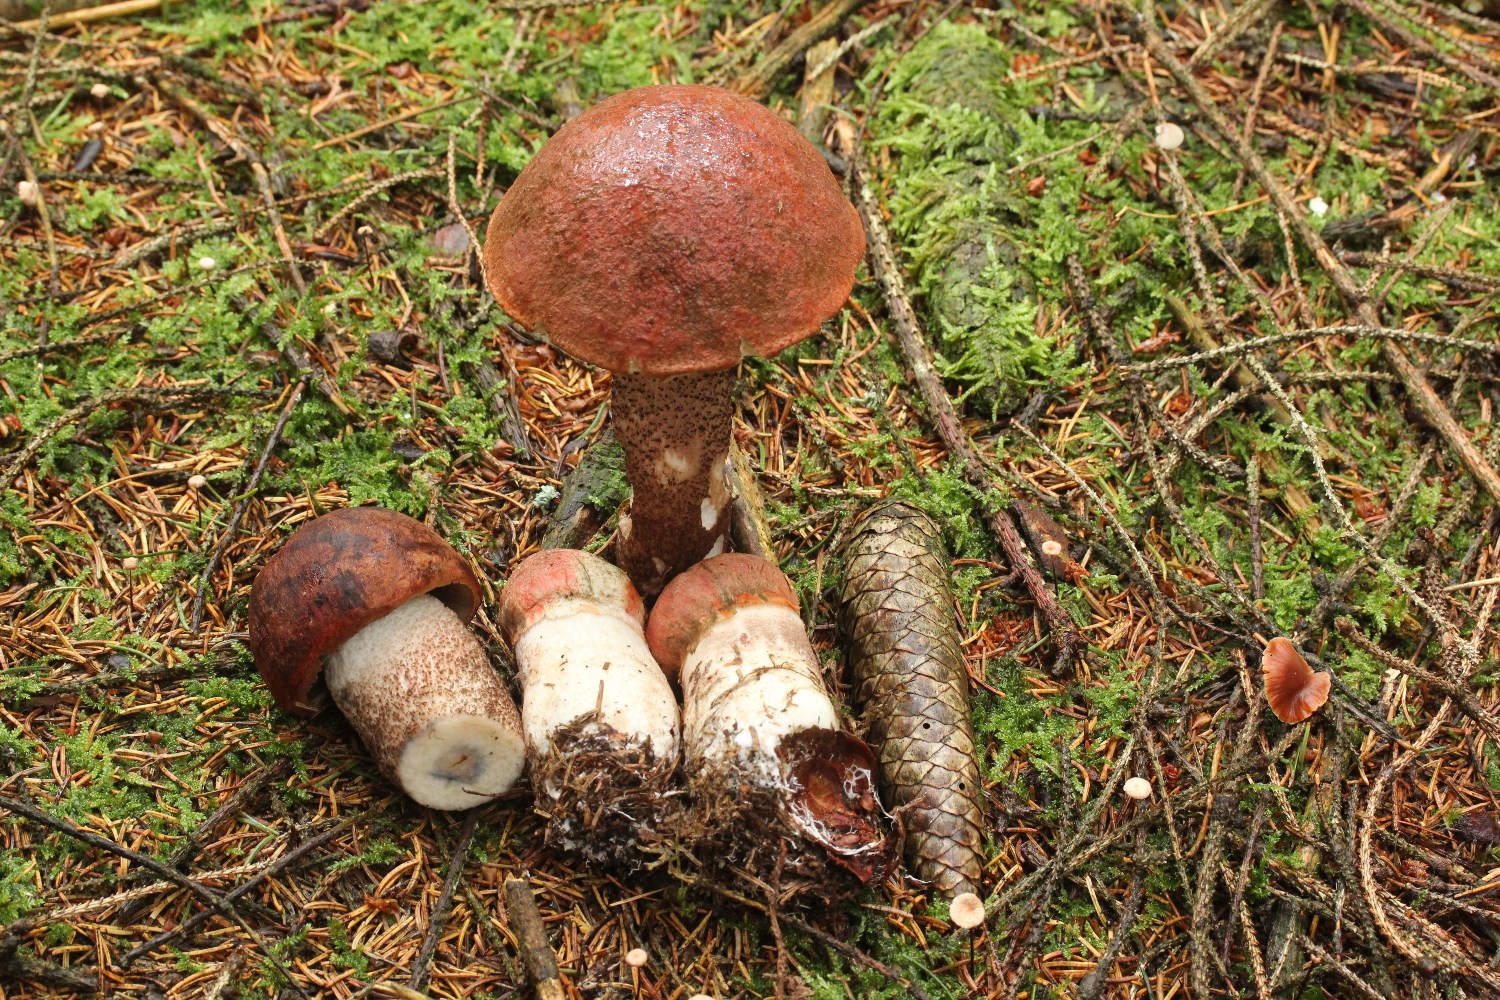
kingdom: Fungi
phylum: Basidiomycota
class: Agaricomycetes
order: Boletales
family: Boletaceae
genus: Leccinum
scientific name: Leccinum vulpinum
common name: fyrre-skælrørhat
